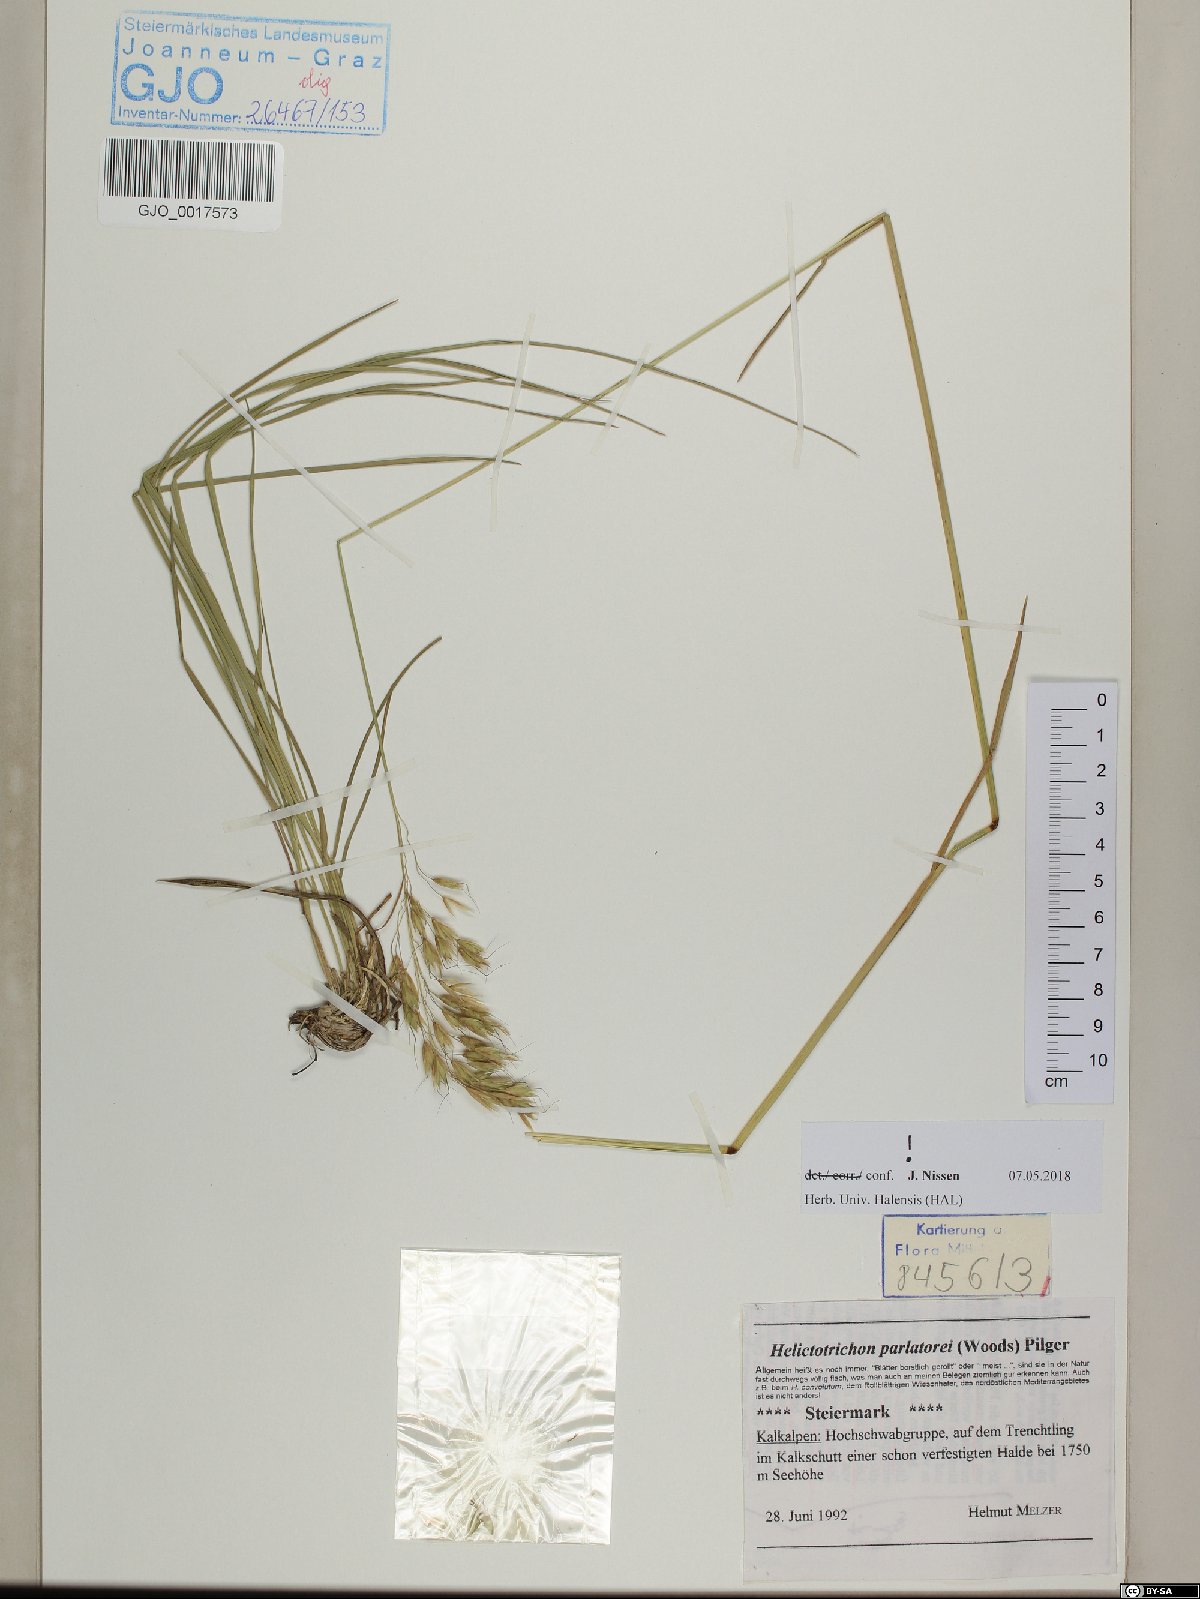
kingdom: Plantae
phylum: Tracheophyta
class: Liliopsida
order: Poales
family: Poaceae
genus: Helictotrichon
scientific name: Helictotrichon parlatorei
